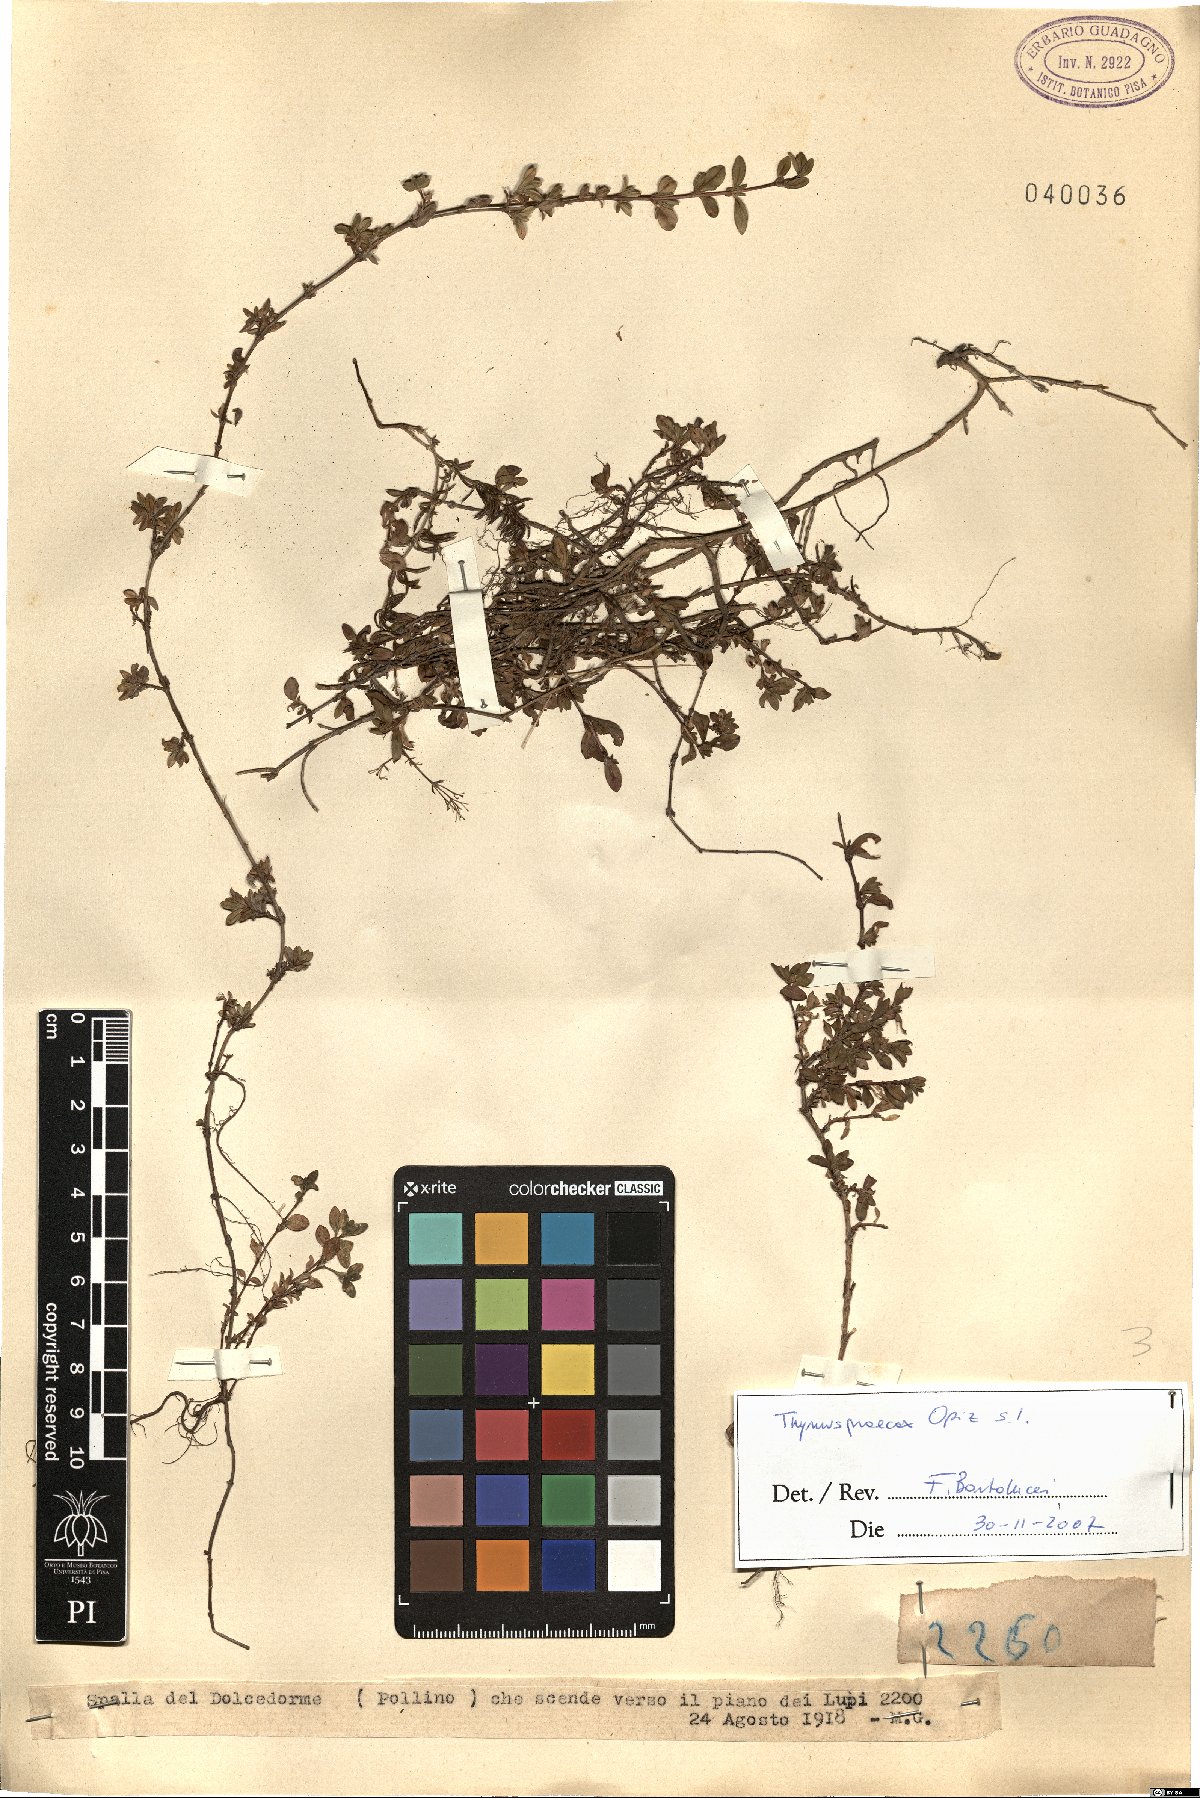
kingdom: Plantae
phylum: Tracheophyta
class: Magnoliopsida
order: Lamiales
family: Lamiaceae
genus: Thymus
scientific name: Thymus praecox
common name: Wild thyme
